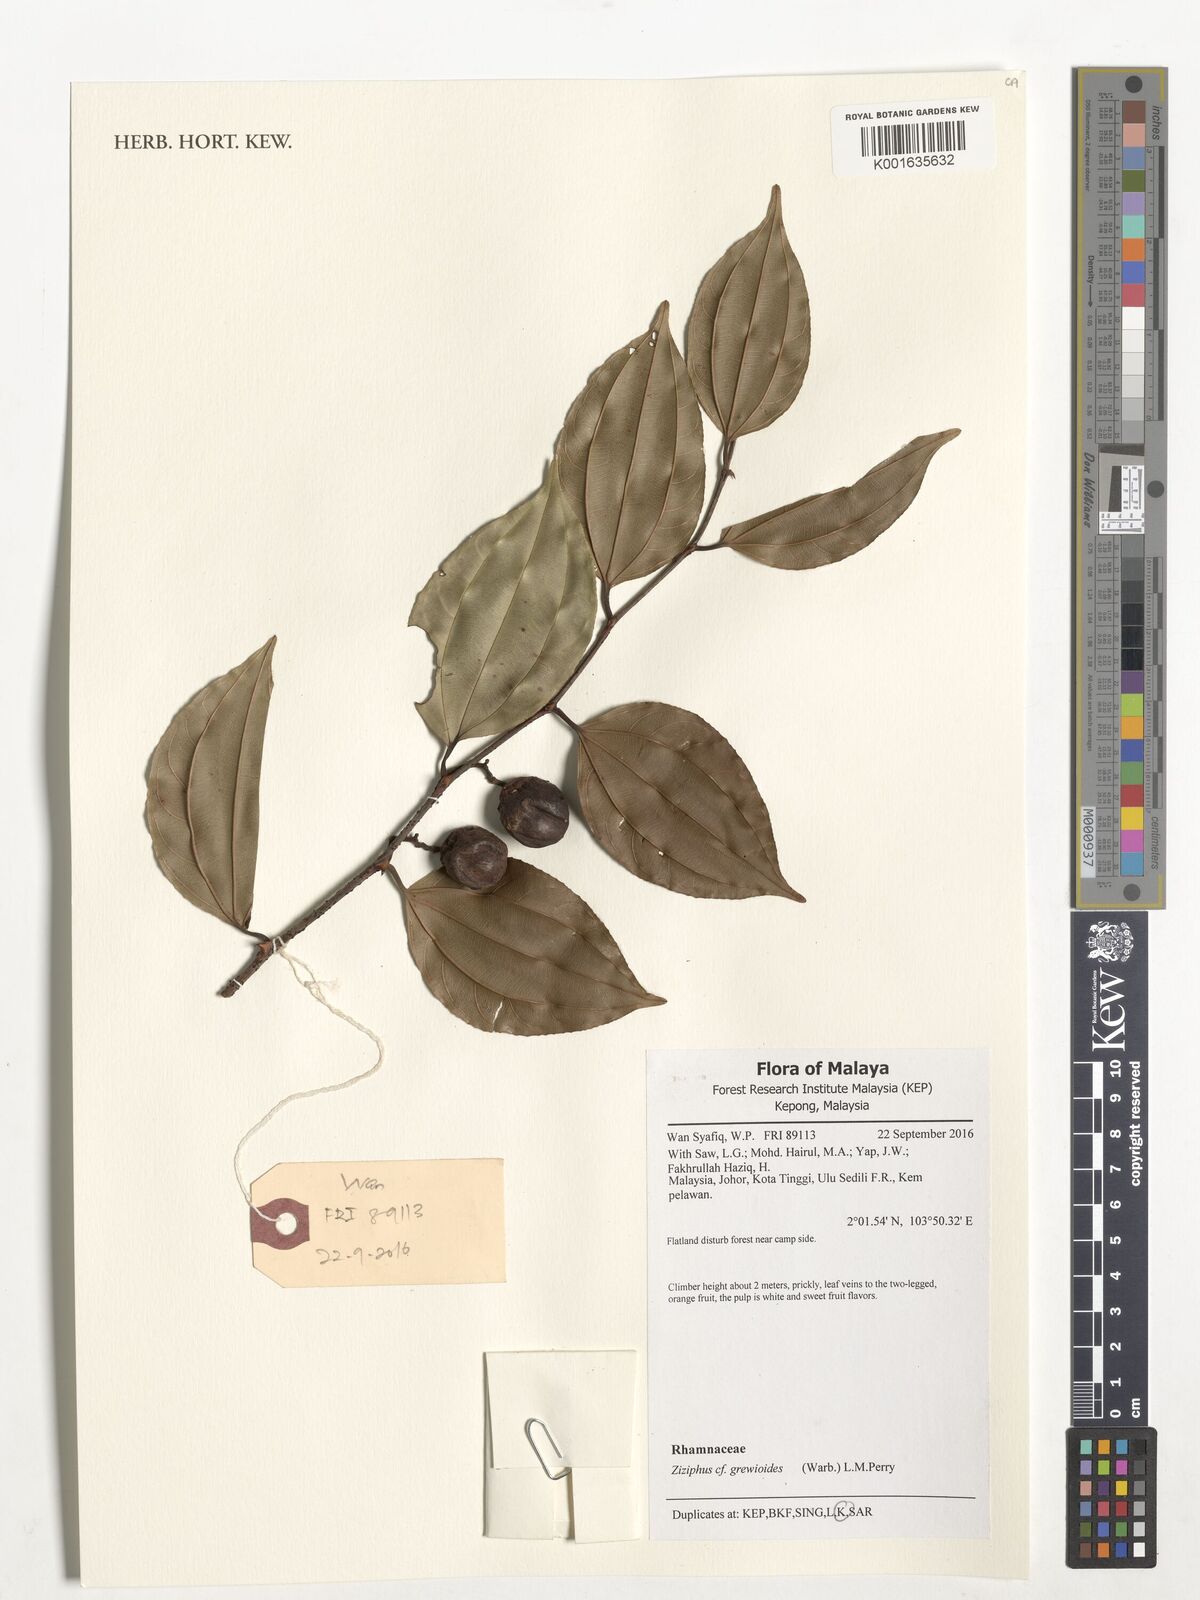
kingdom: Plantae
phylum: Tracheophyta
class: Magnoliopsida
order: Rosales
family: Rhamnaceae
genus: Ziziphus
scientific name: Ziziphus angustifolia
